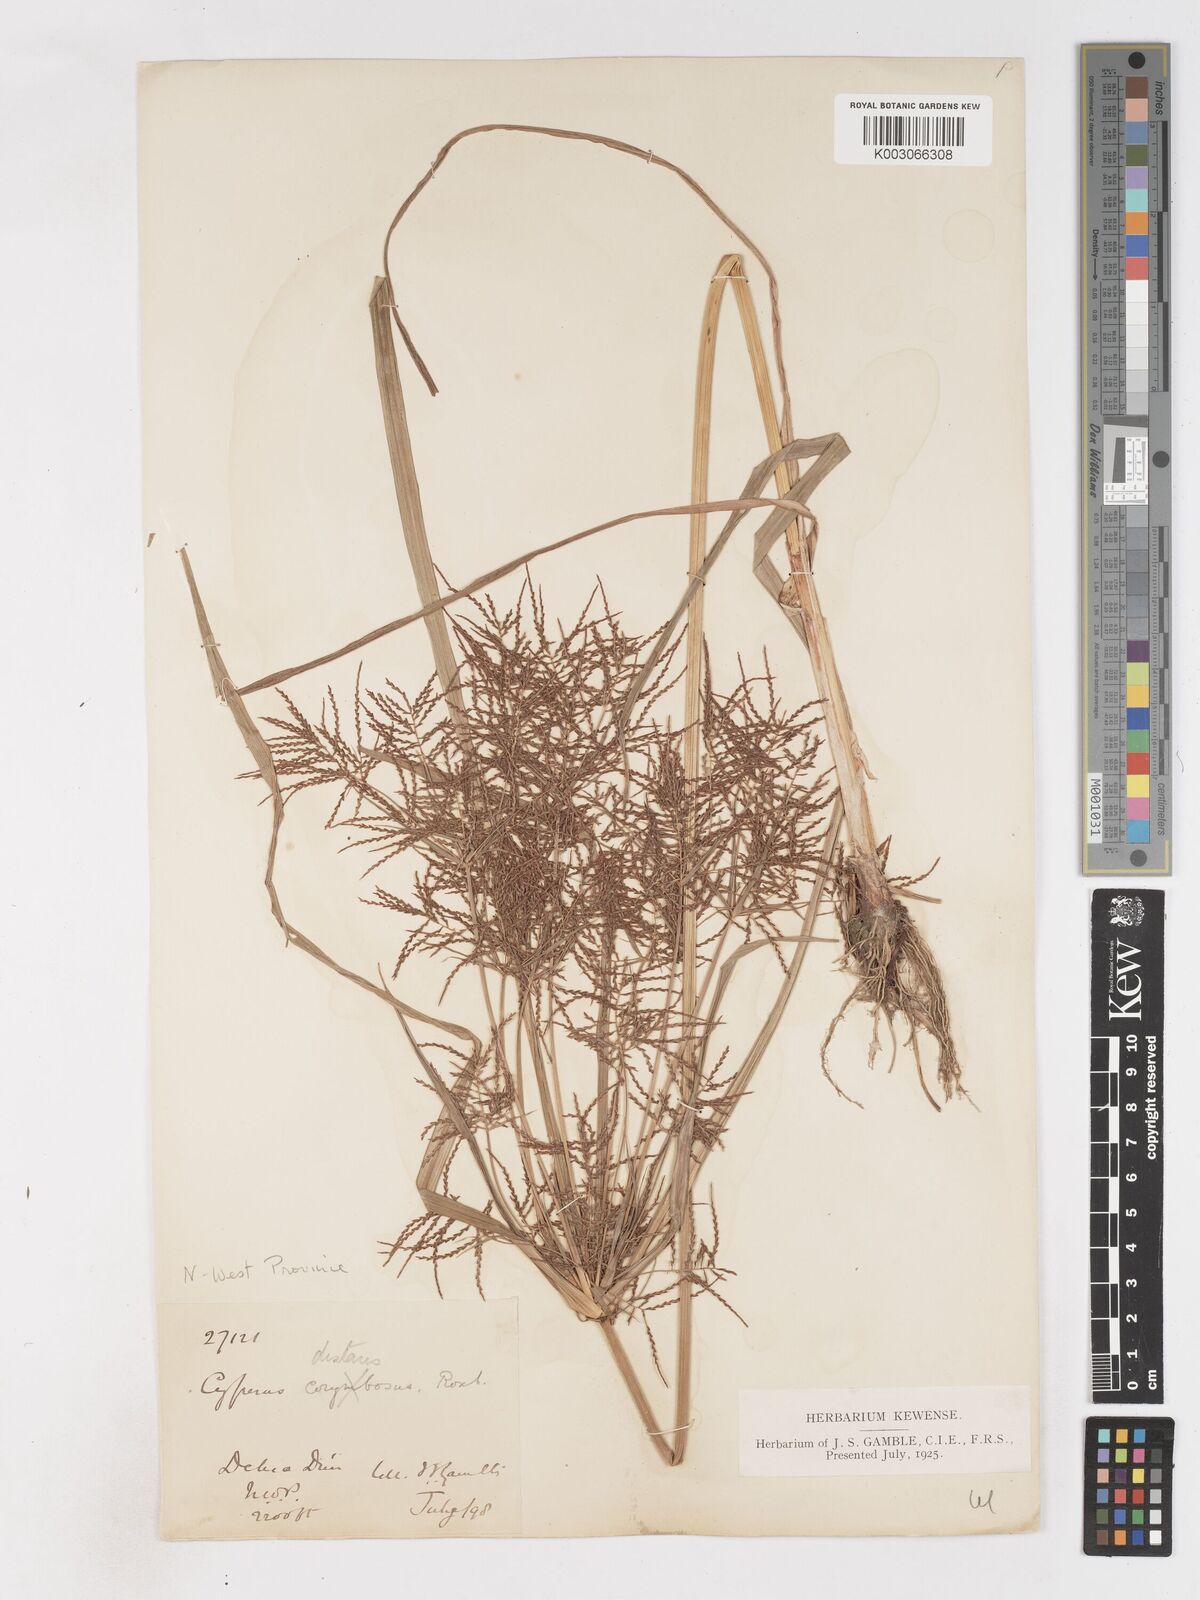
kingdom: Plantae
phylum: Tracheophyta
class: Liliopsida
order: Poales
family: Cyperaceae
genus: Cyperus
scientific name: Cyperus distans
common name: Slender cyperus
